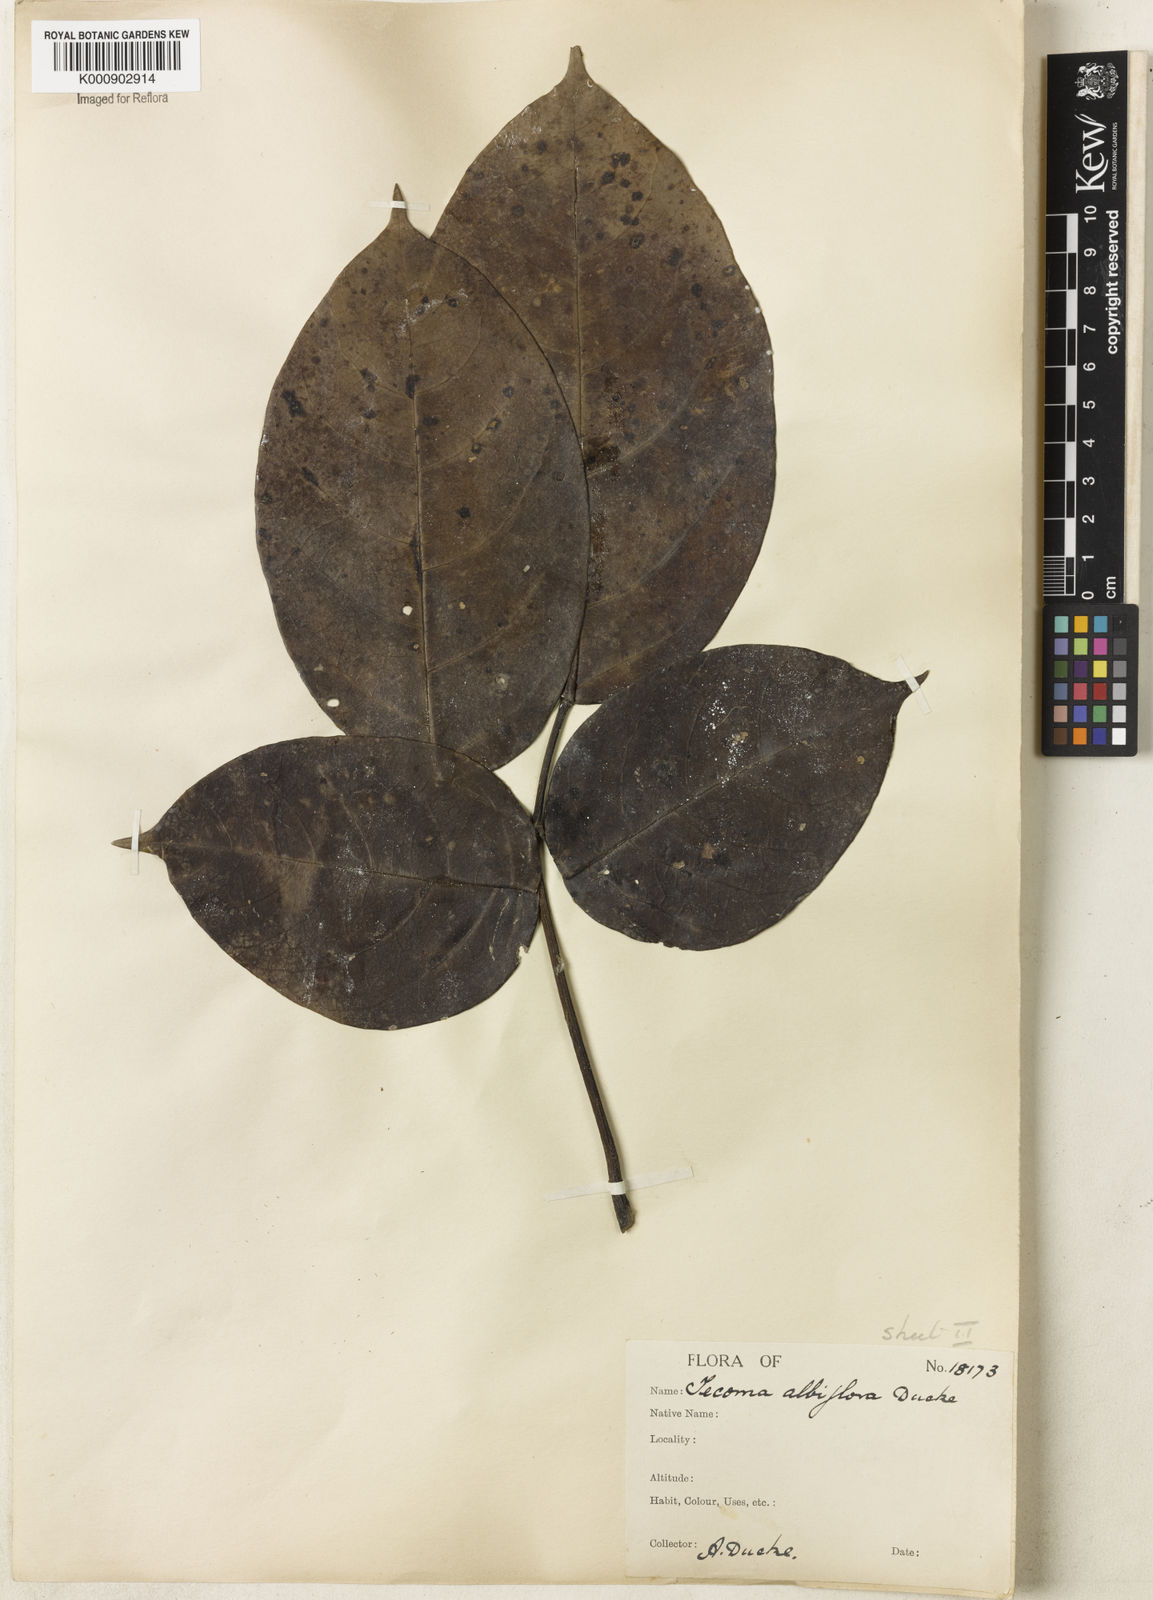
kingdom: Plantae
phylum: Tracheophyta
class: Magnoliopsida
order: Lamiales
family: Bignoniaceae
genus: Tabebuia
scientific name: Tabebuia insignis
